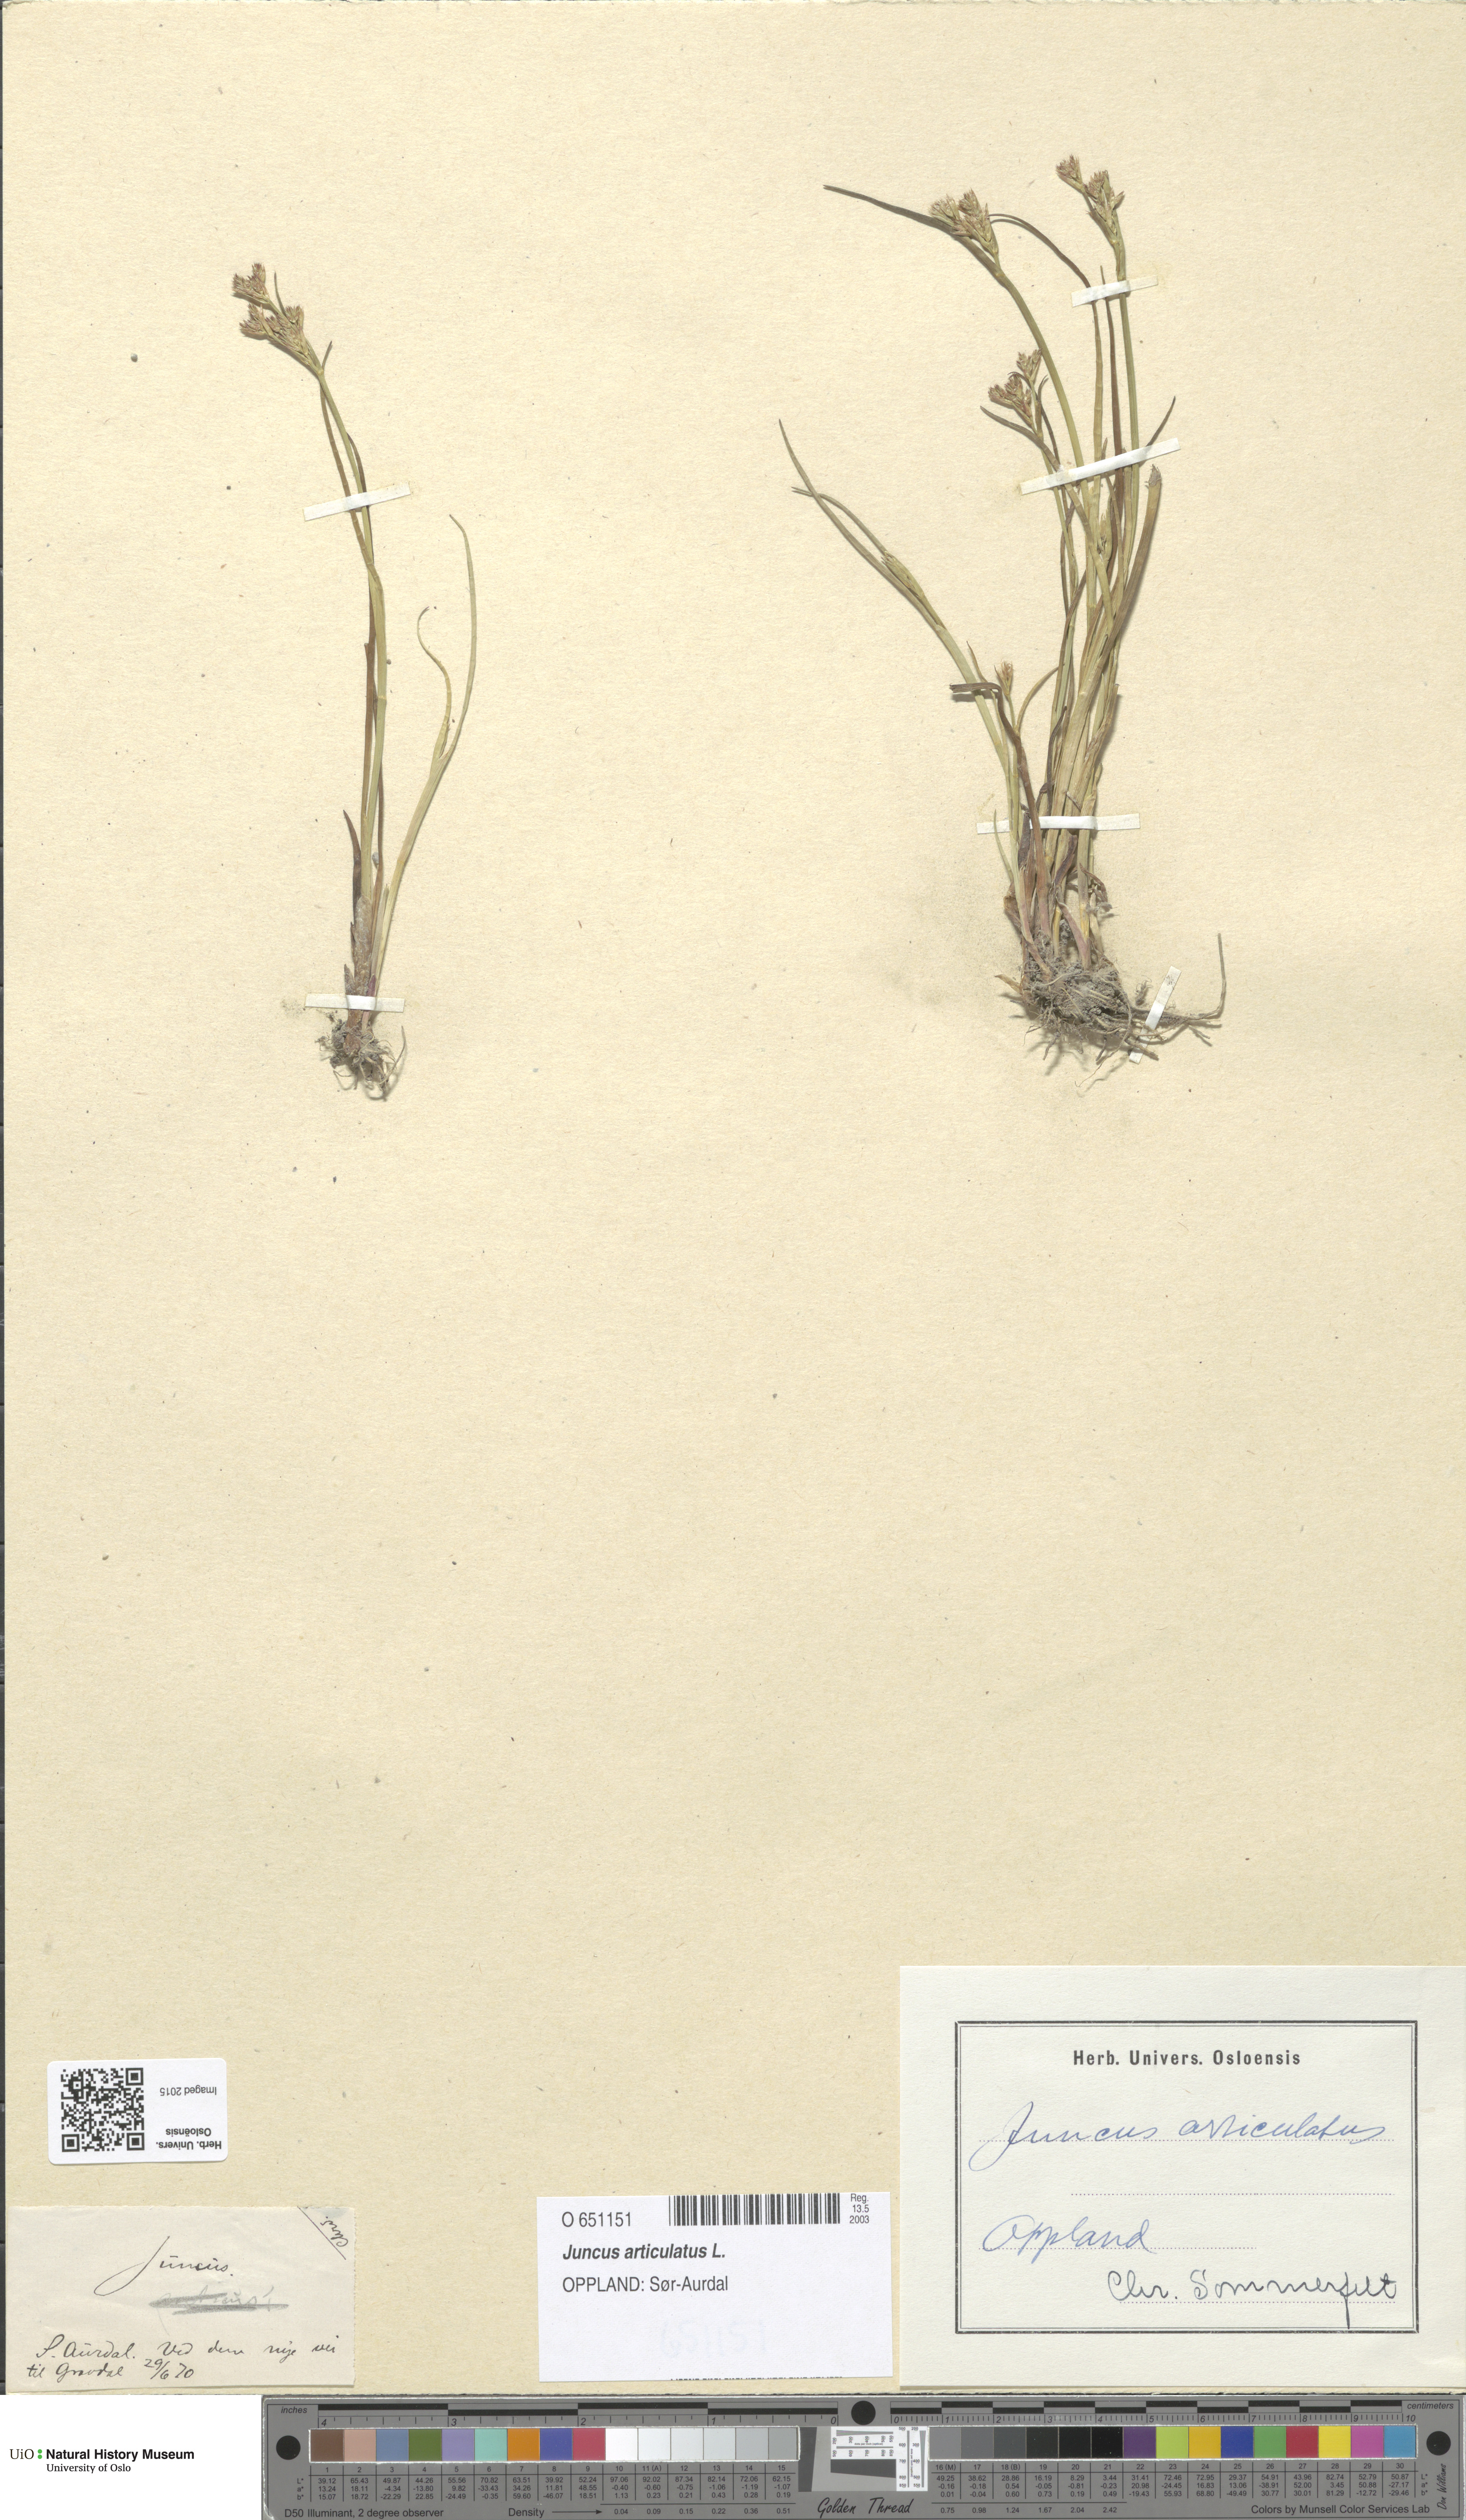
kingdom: Plantae
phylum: Tracheophyta
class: Liliopsida
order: Poales
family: Juncaceae
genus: Juncus
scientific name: Juncus articulatus
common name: Jointed rush
